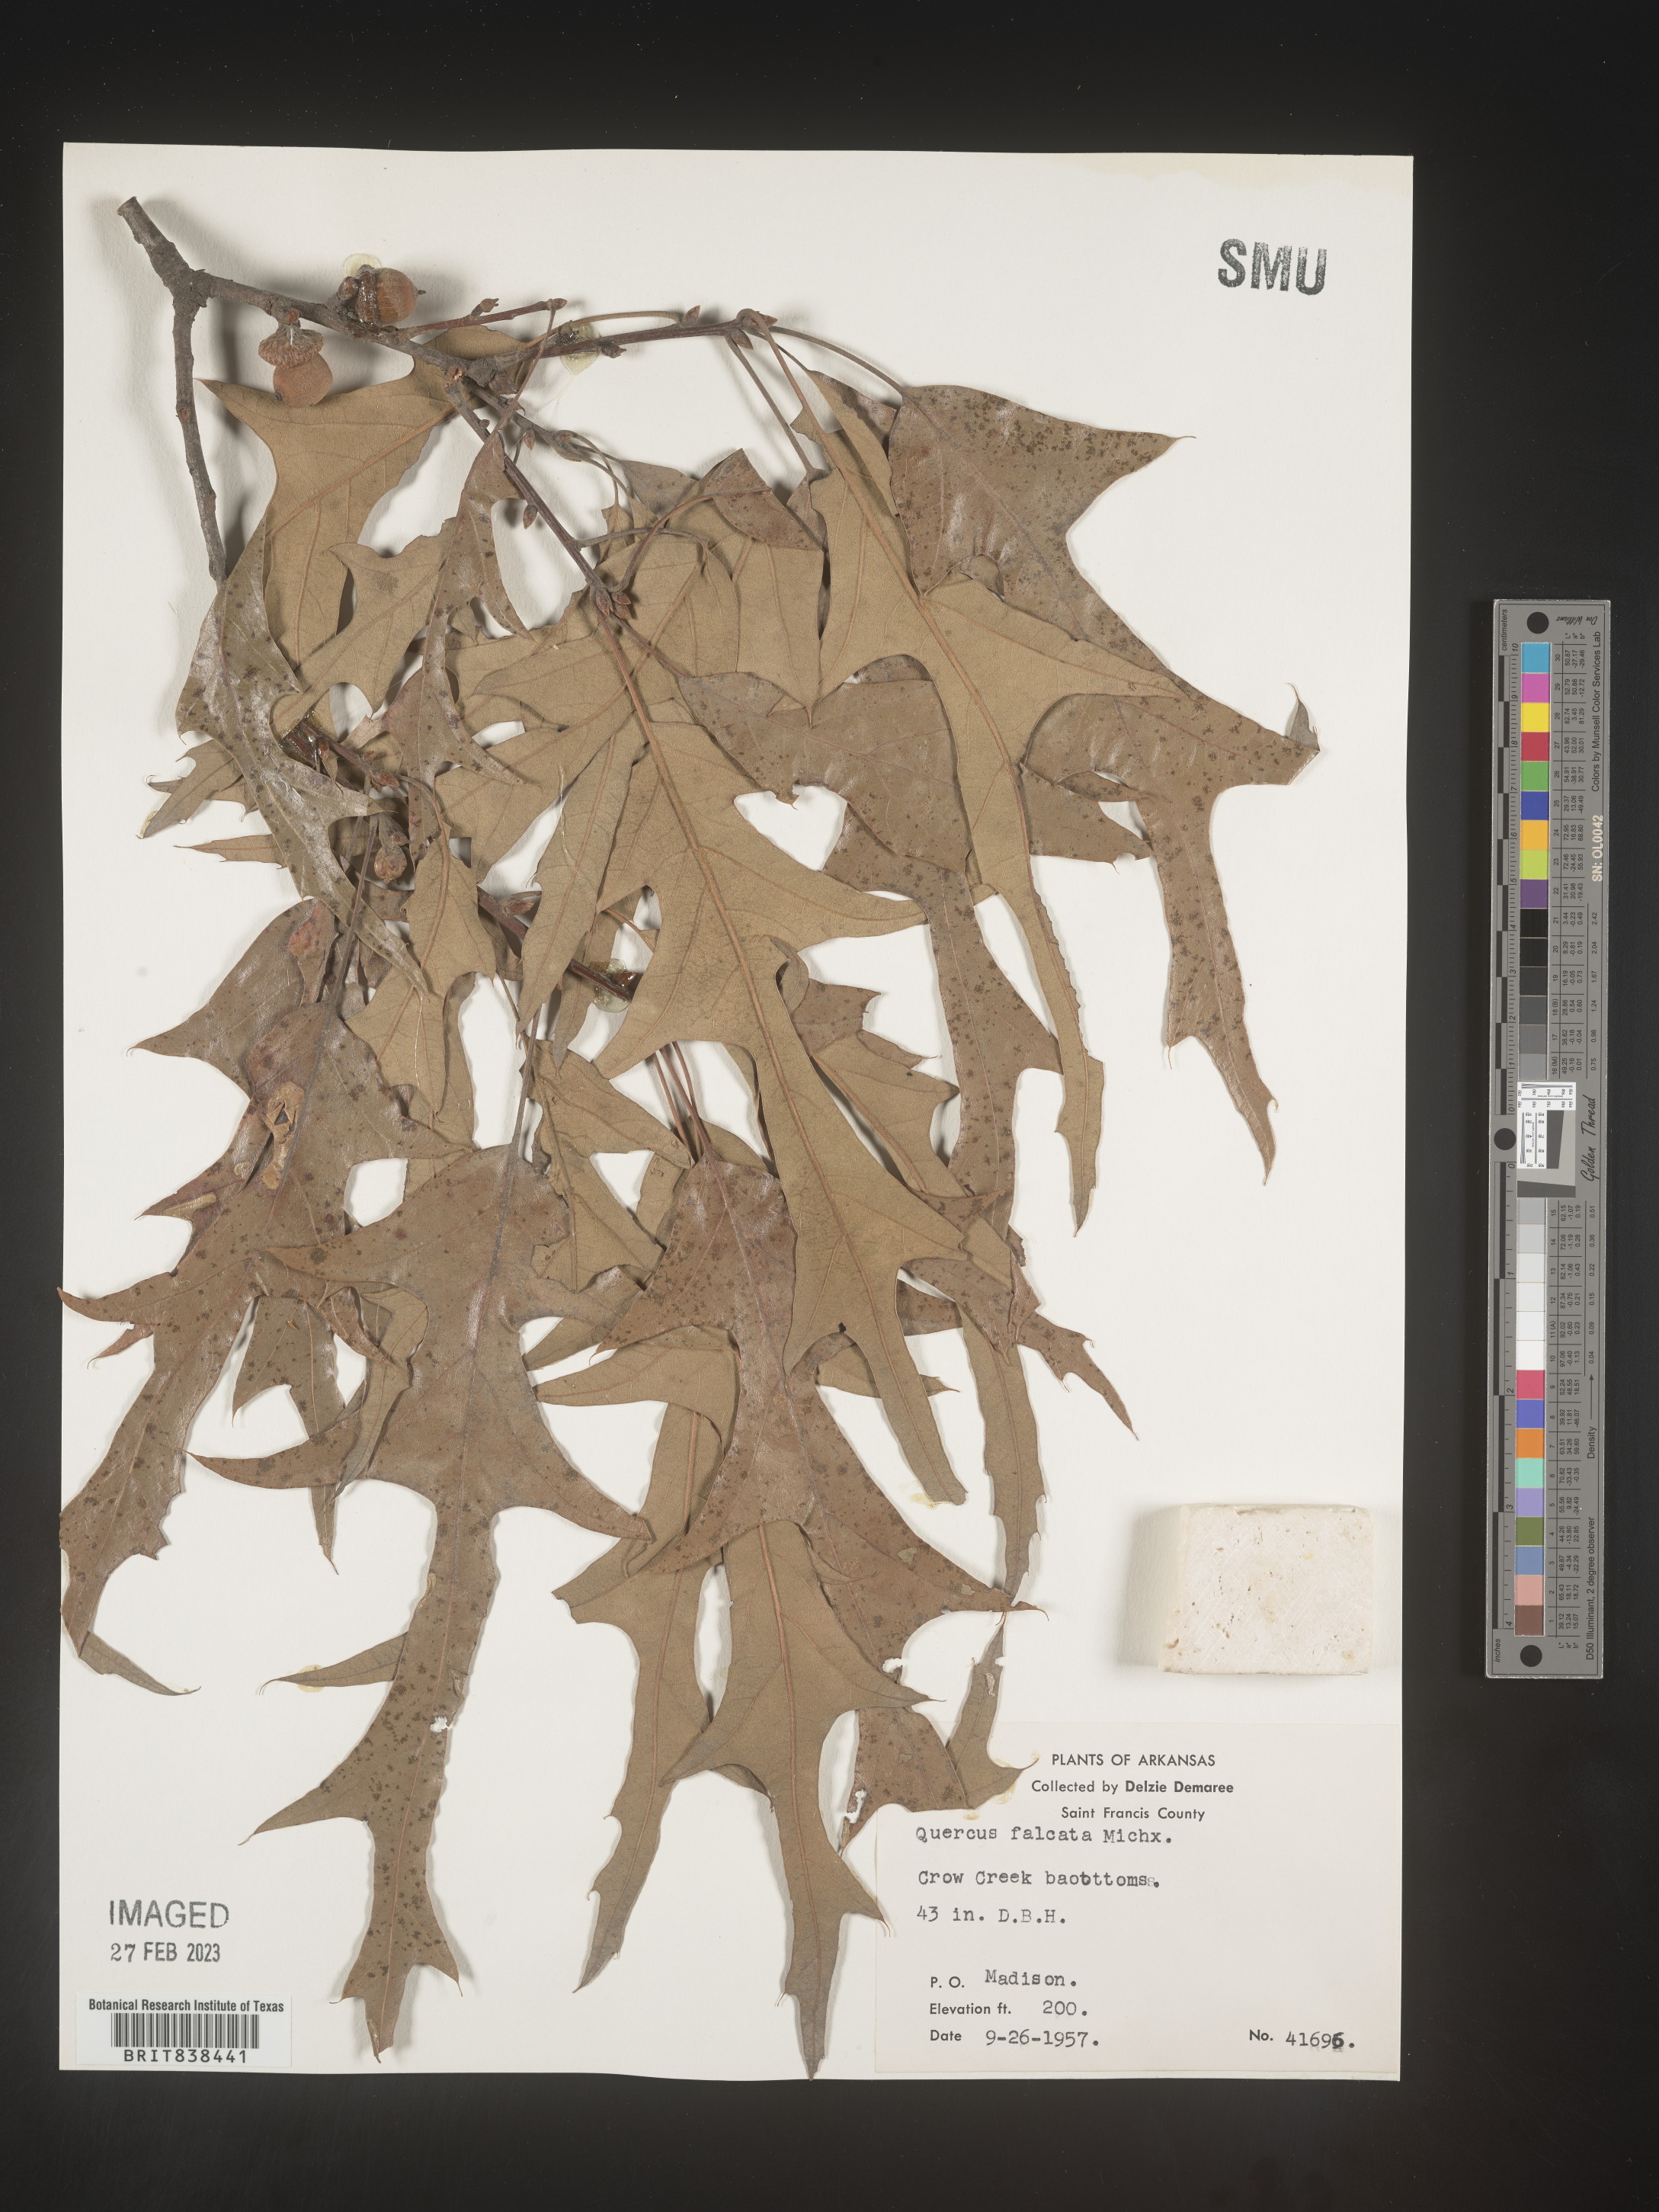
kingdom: Plantae
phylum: Tracheophyta
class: Magnoliopsida
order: Fagales
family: Fagaceae
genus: Quercus
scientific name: Quercus falcata
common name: Southern red oak
